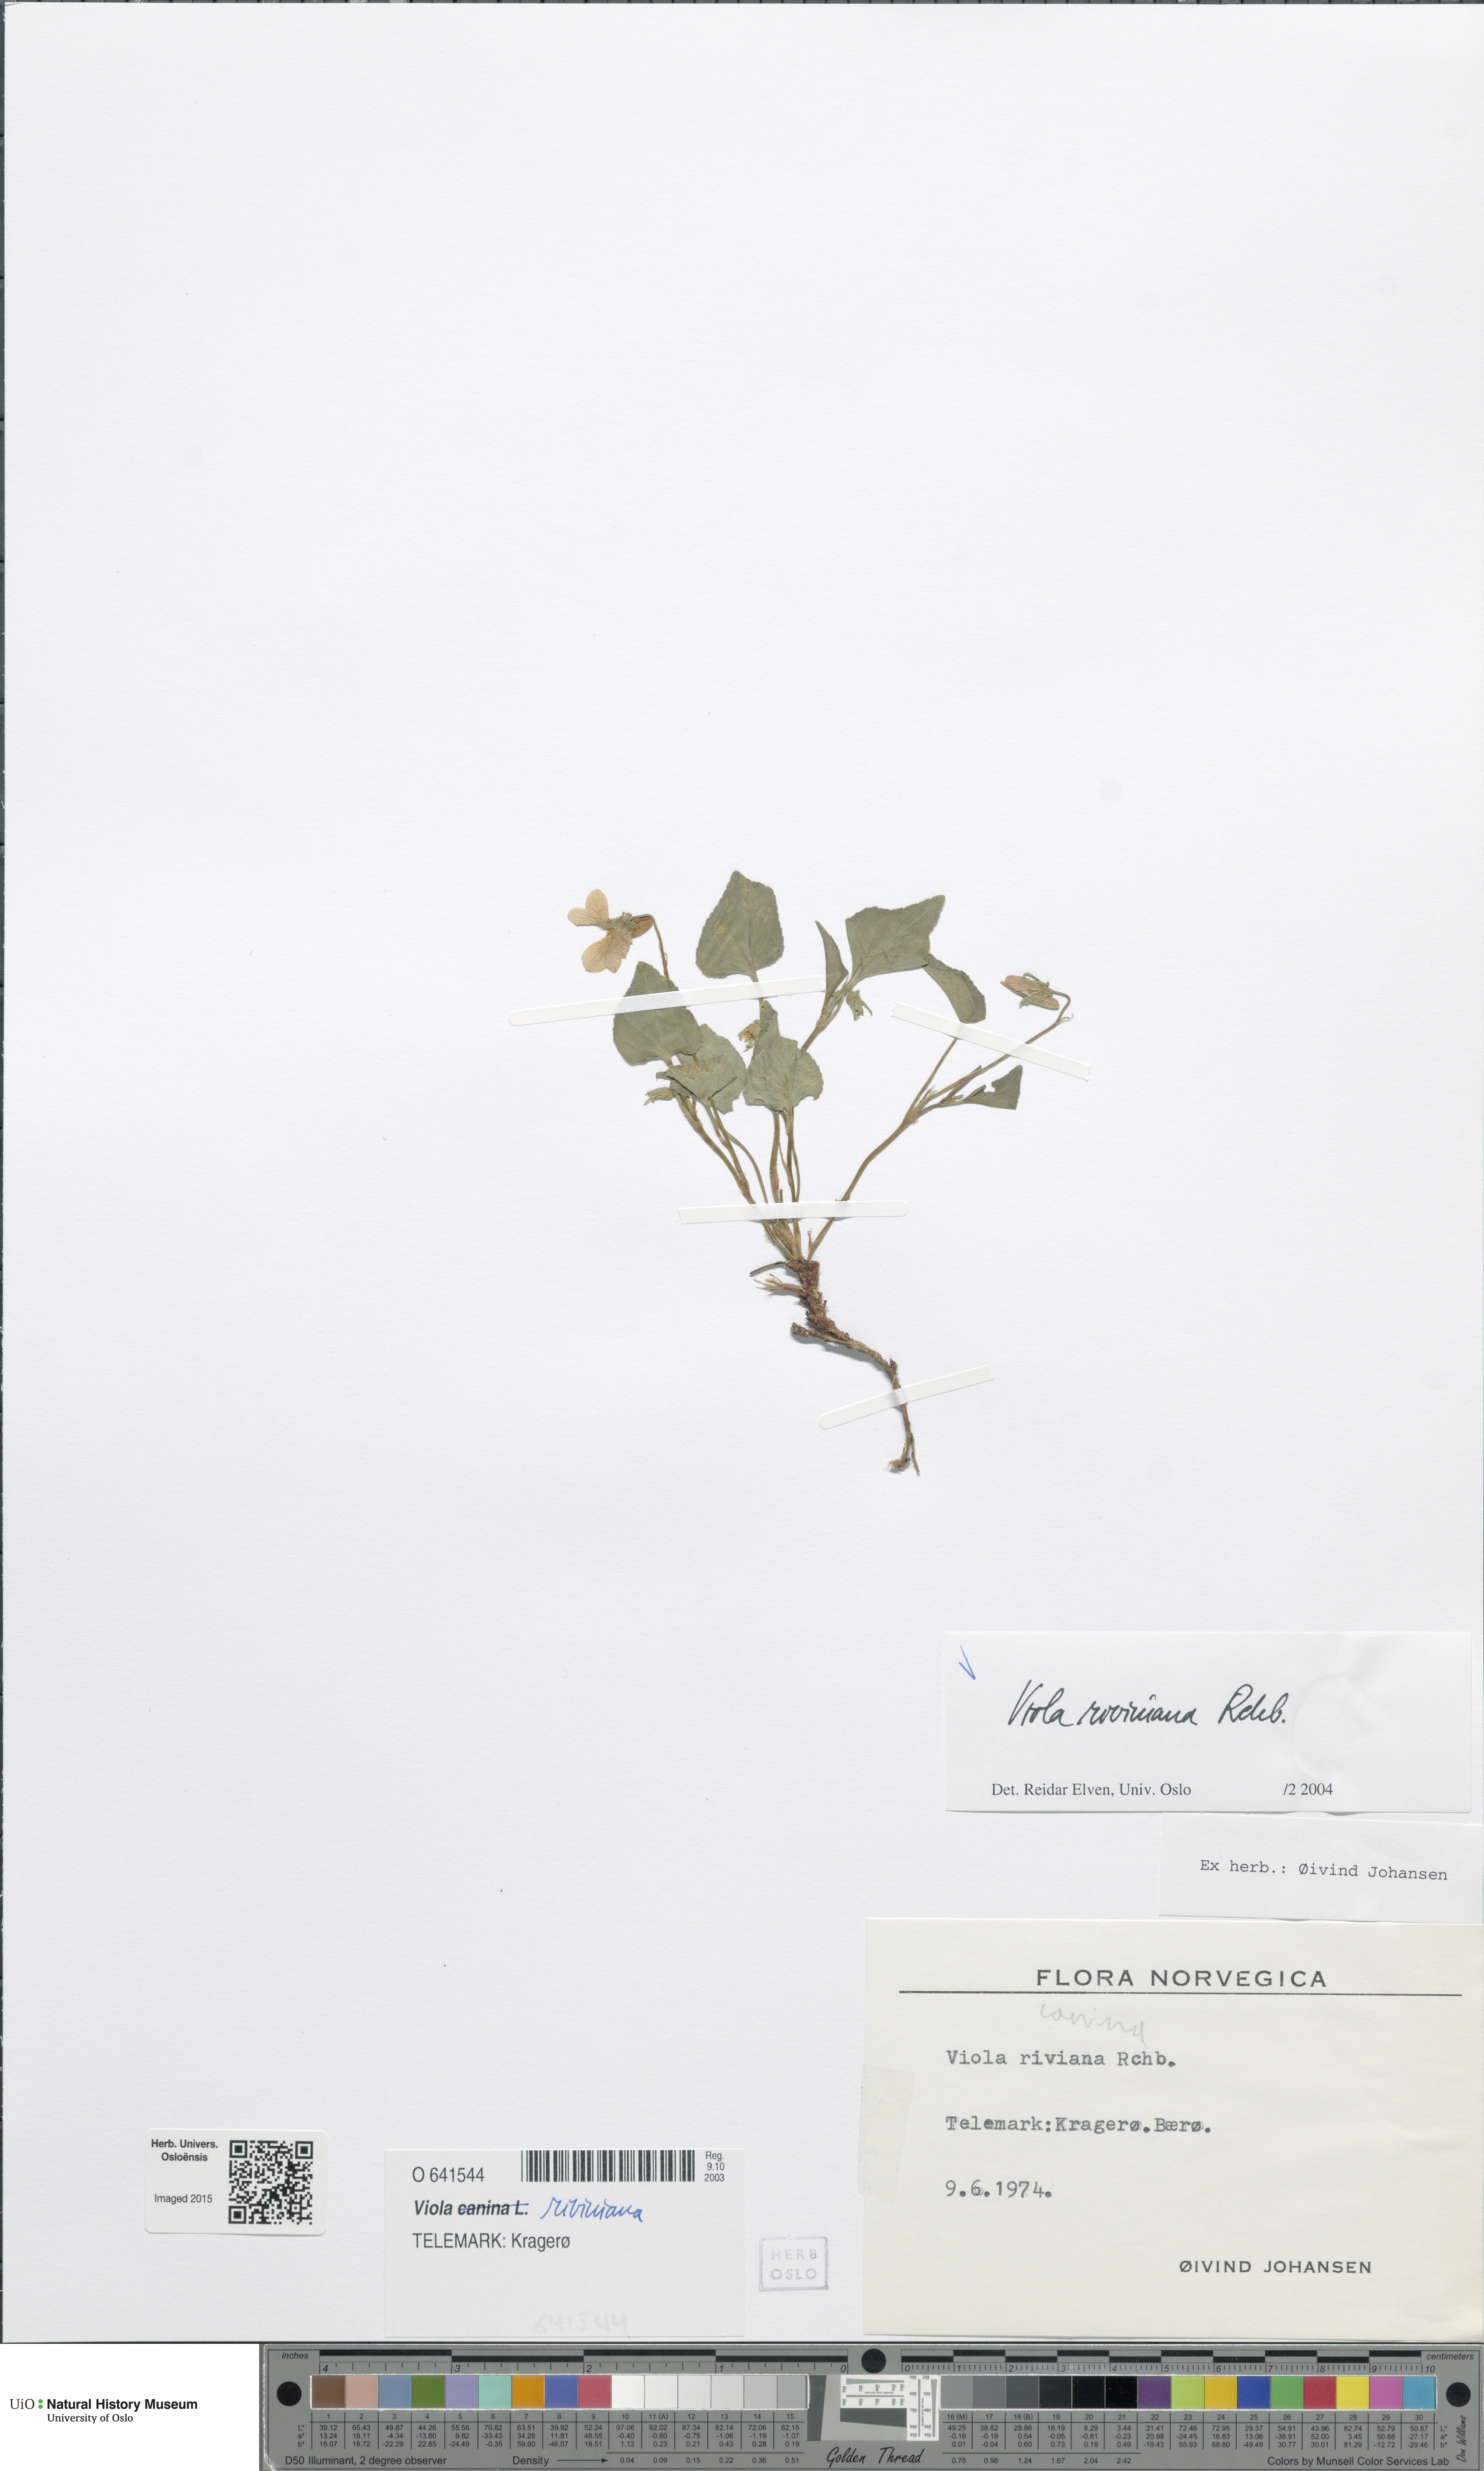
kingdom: Plantae
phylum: Tracheophyta
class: Magnoliopsida
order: Malpighiales
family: Violaceae
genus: Viola
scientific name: Viola riviniana
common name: Common dog-violet
